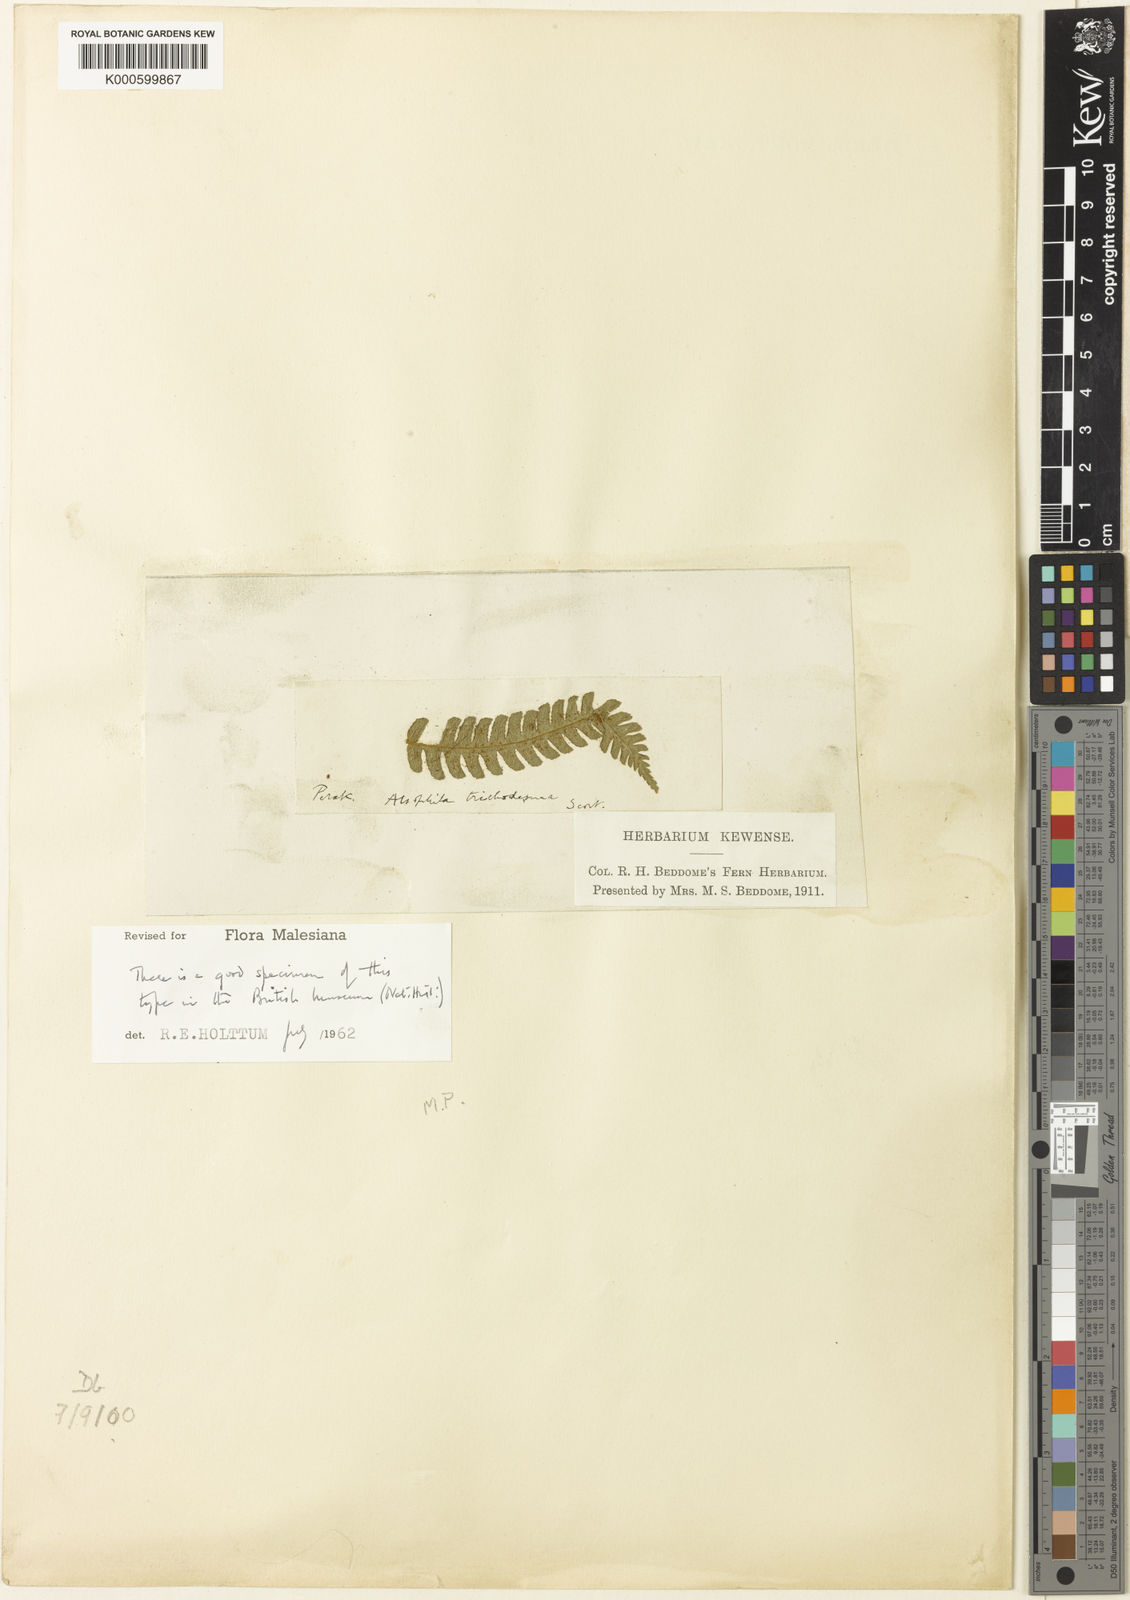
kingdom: Plantae
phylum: Tracheophyta
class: Polypodiopsida
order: Cyatheales
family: Cyatheaceae
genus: Sphaeropteris
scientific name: Sphaeropteris trichodesma
